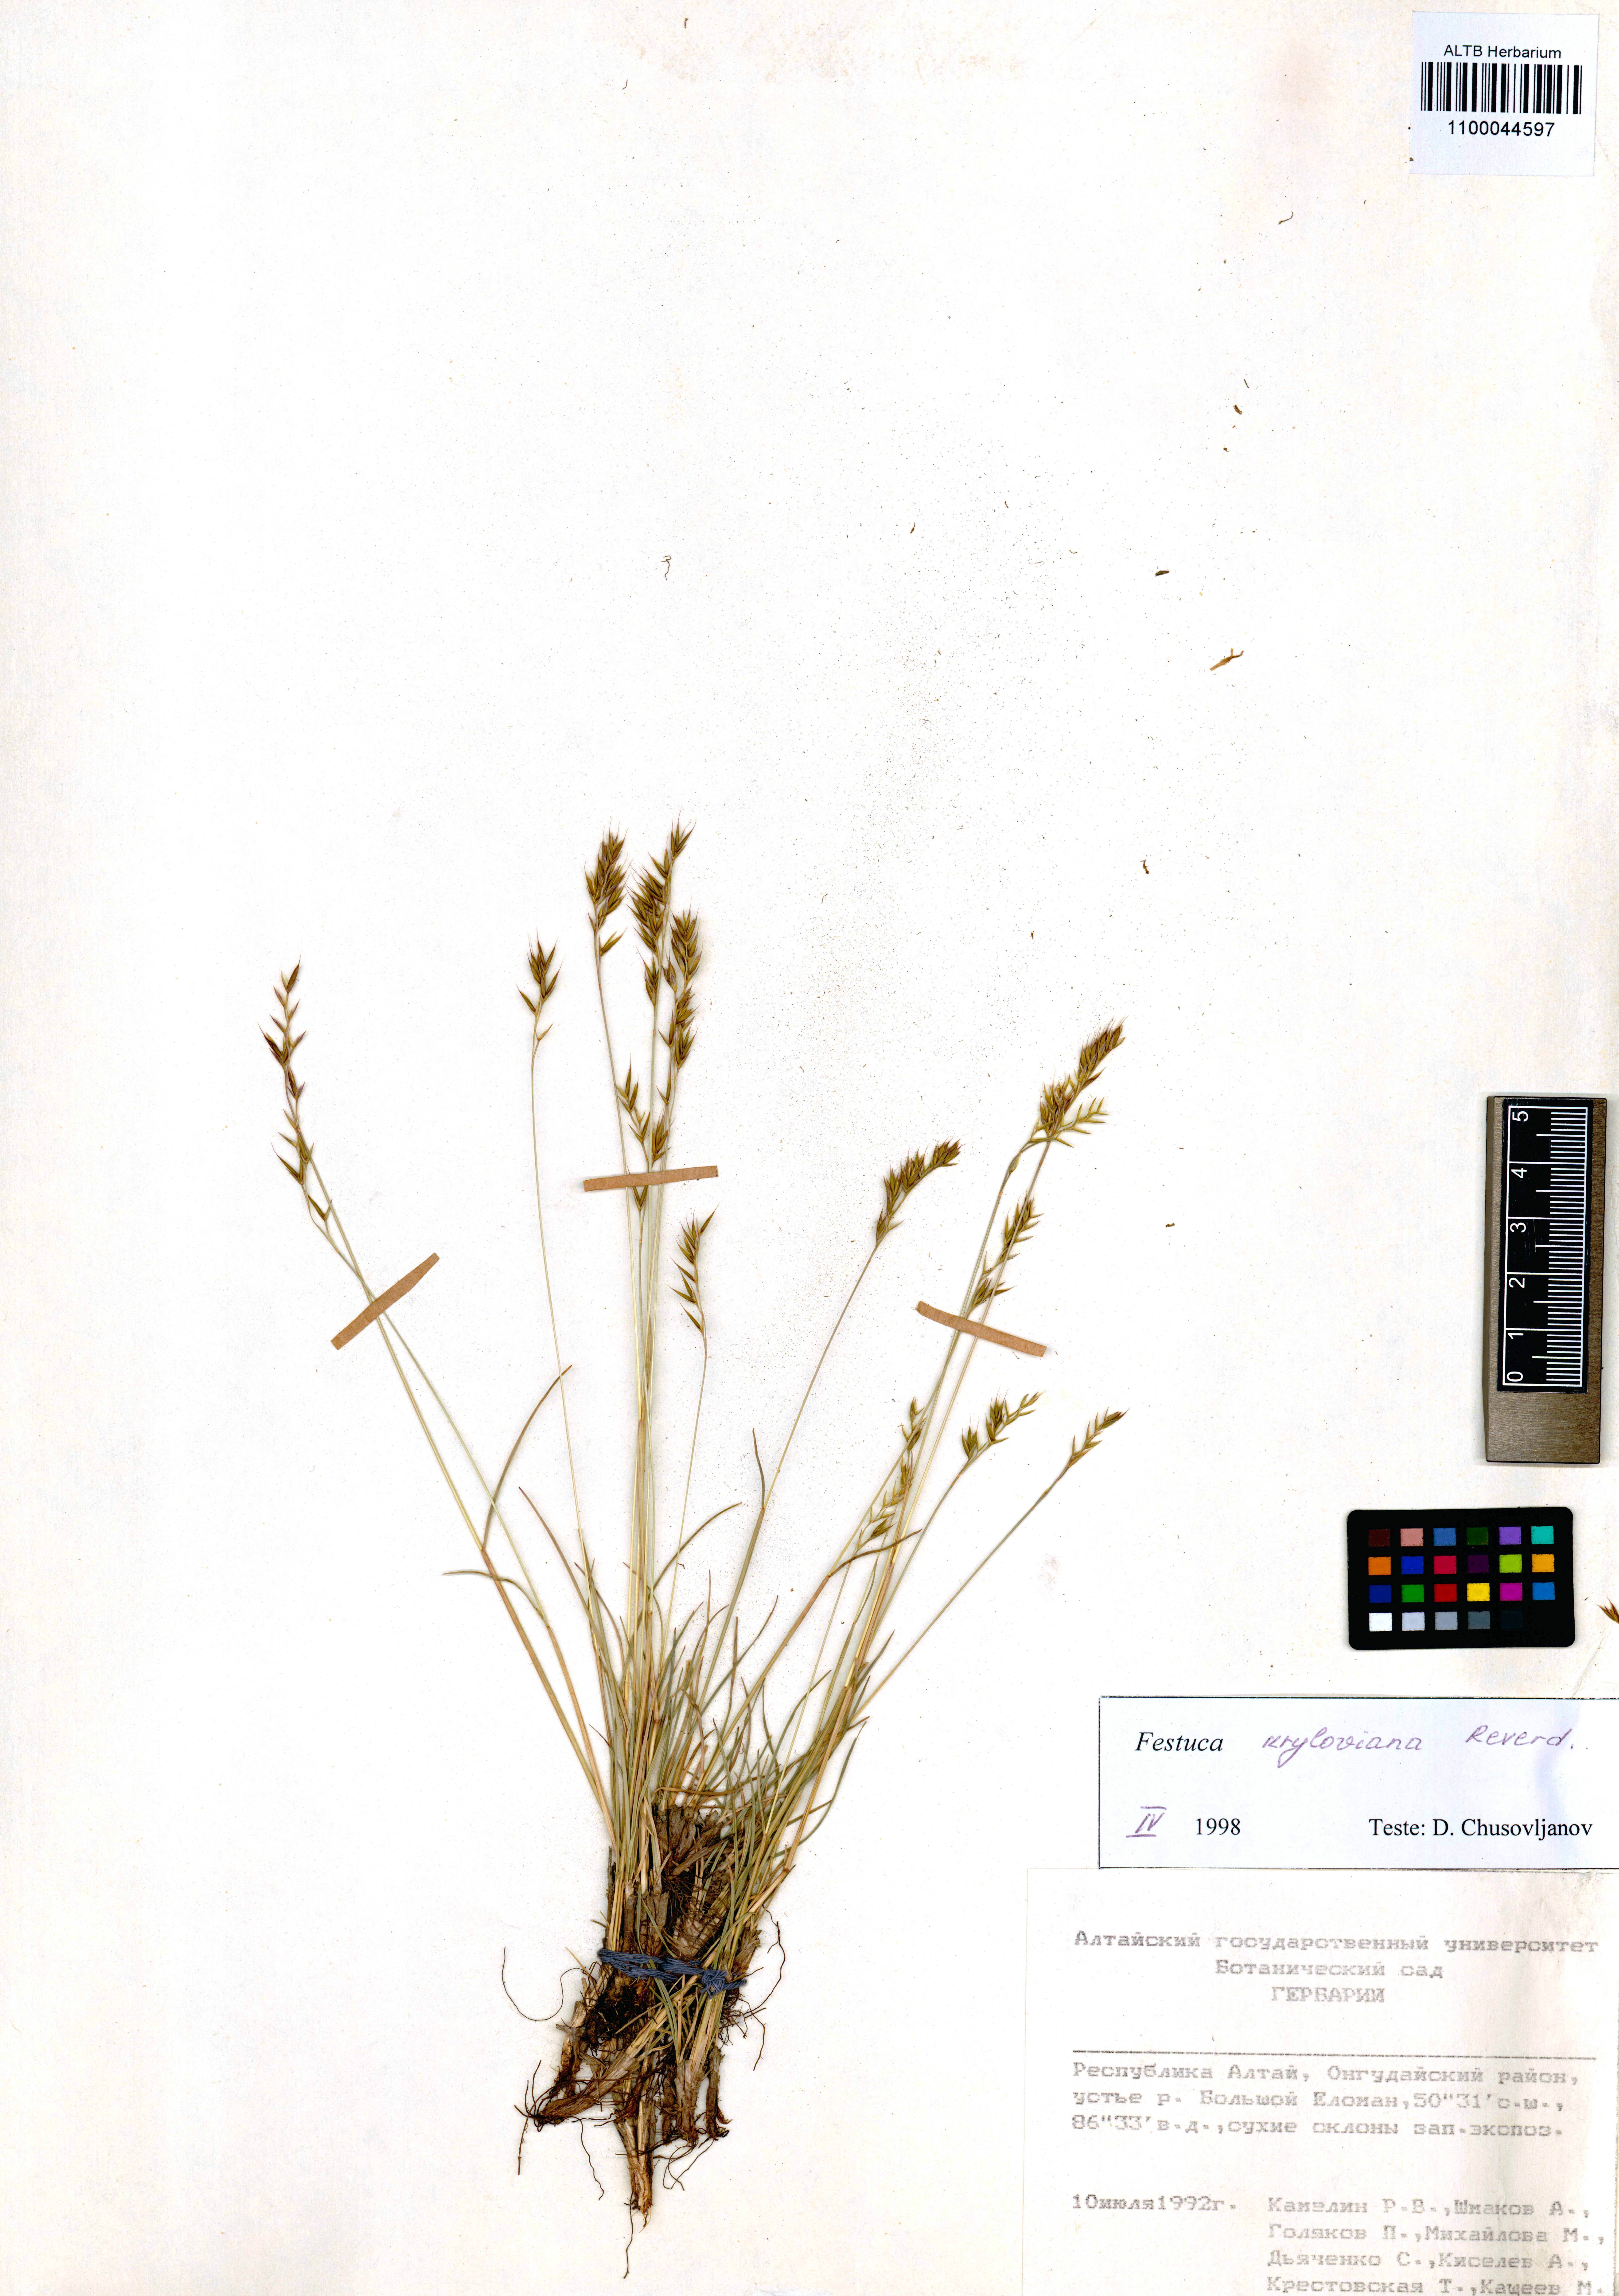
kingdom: Plantae
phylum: Tracheophyta
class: Liliopsida
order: Poales
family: Poaceae
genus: Festuca
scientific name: Festuca kryloviana
